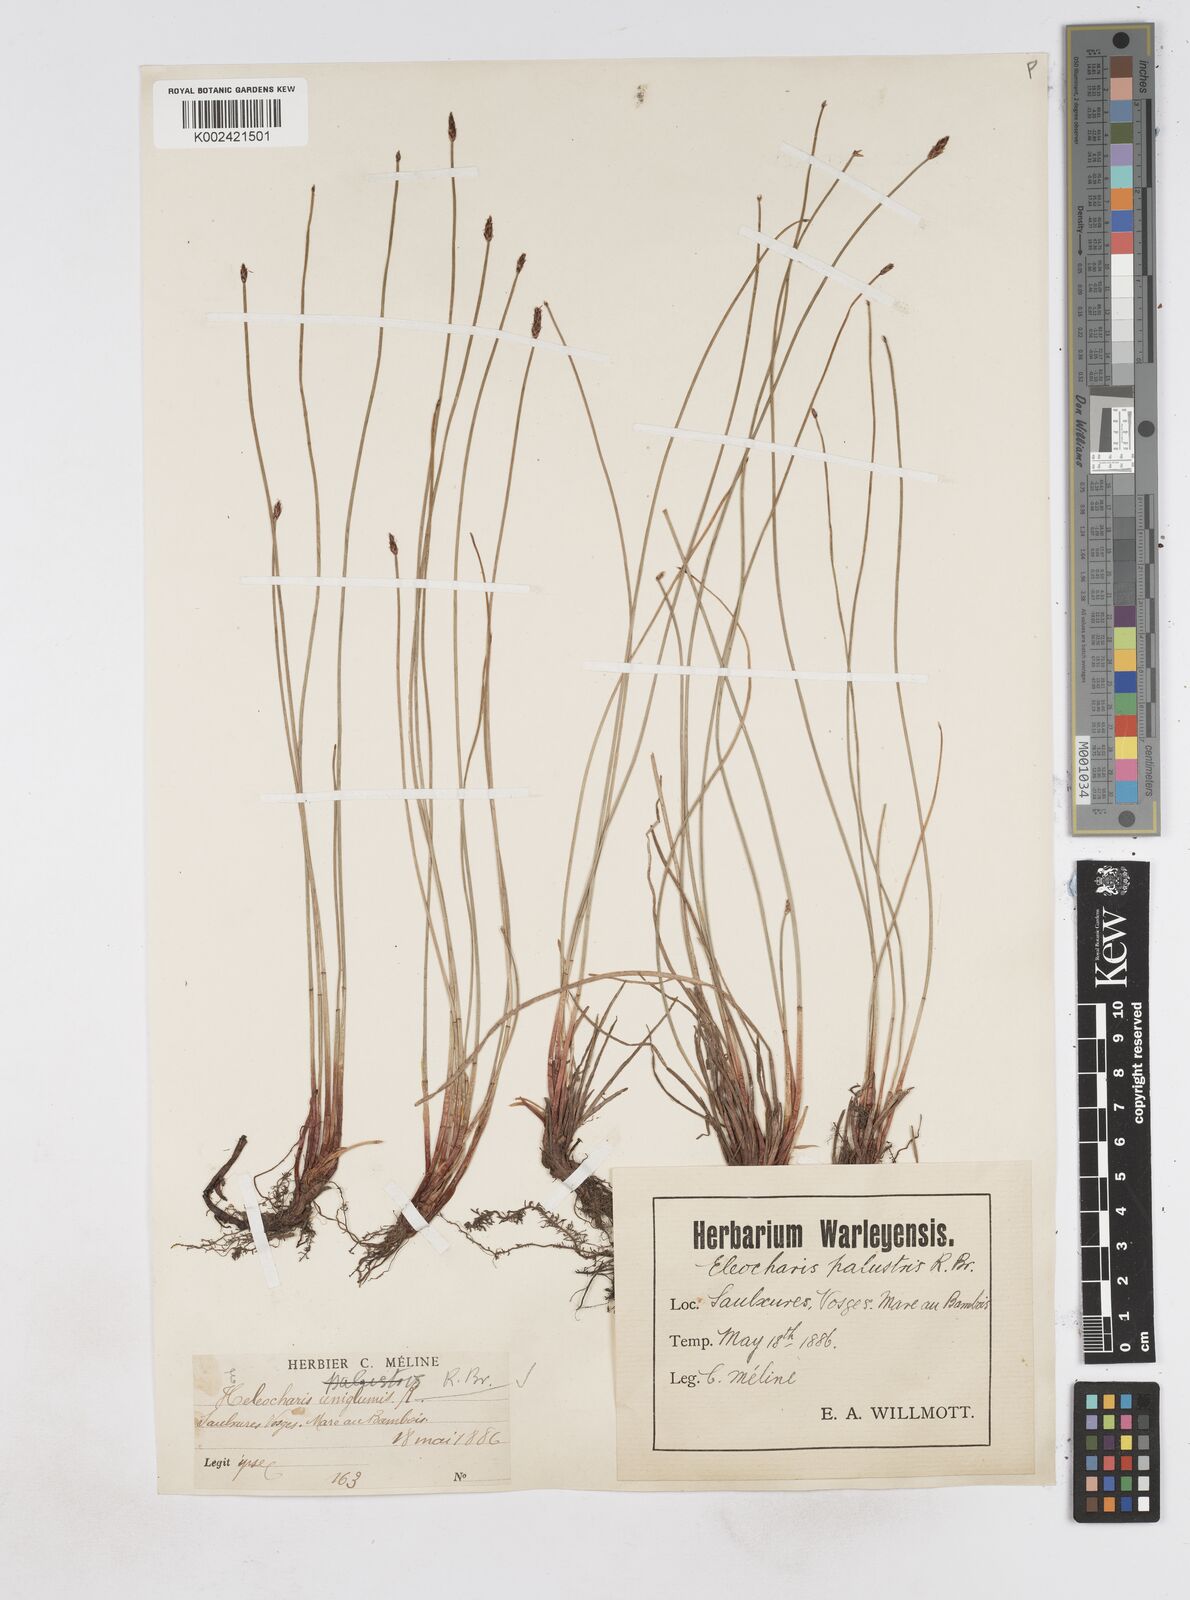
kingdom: Plantae
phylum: Tracheophyta
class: Liliopsida
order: Poales
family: Cyperaceae
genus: Eleocharis
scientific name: Eleocharis uniglumis
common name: Slender spike-rush
